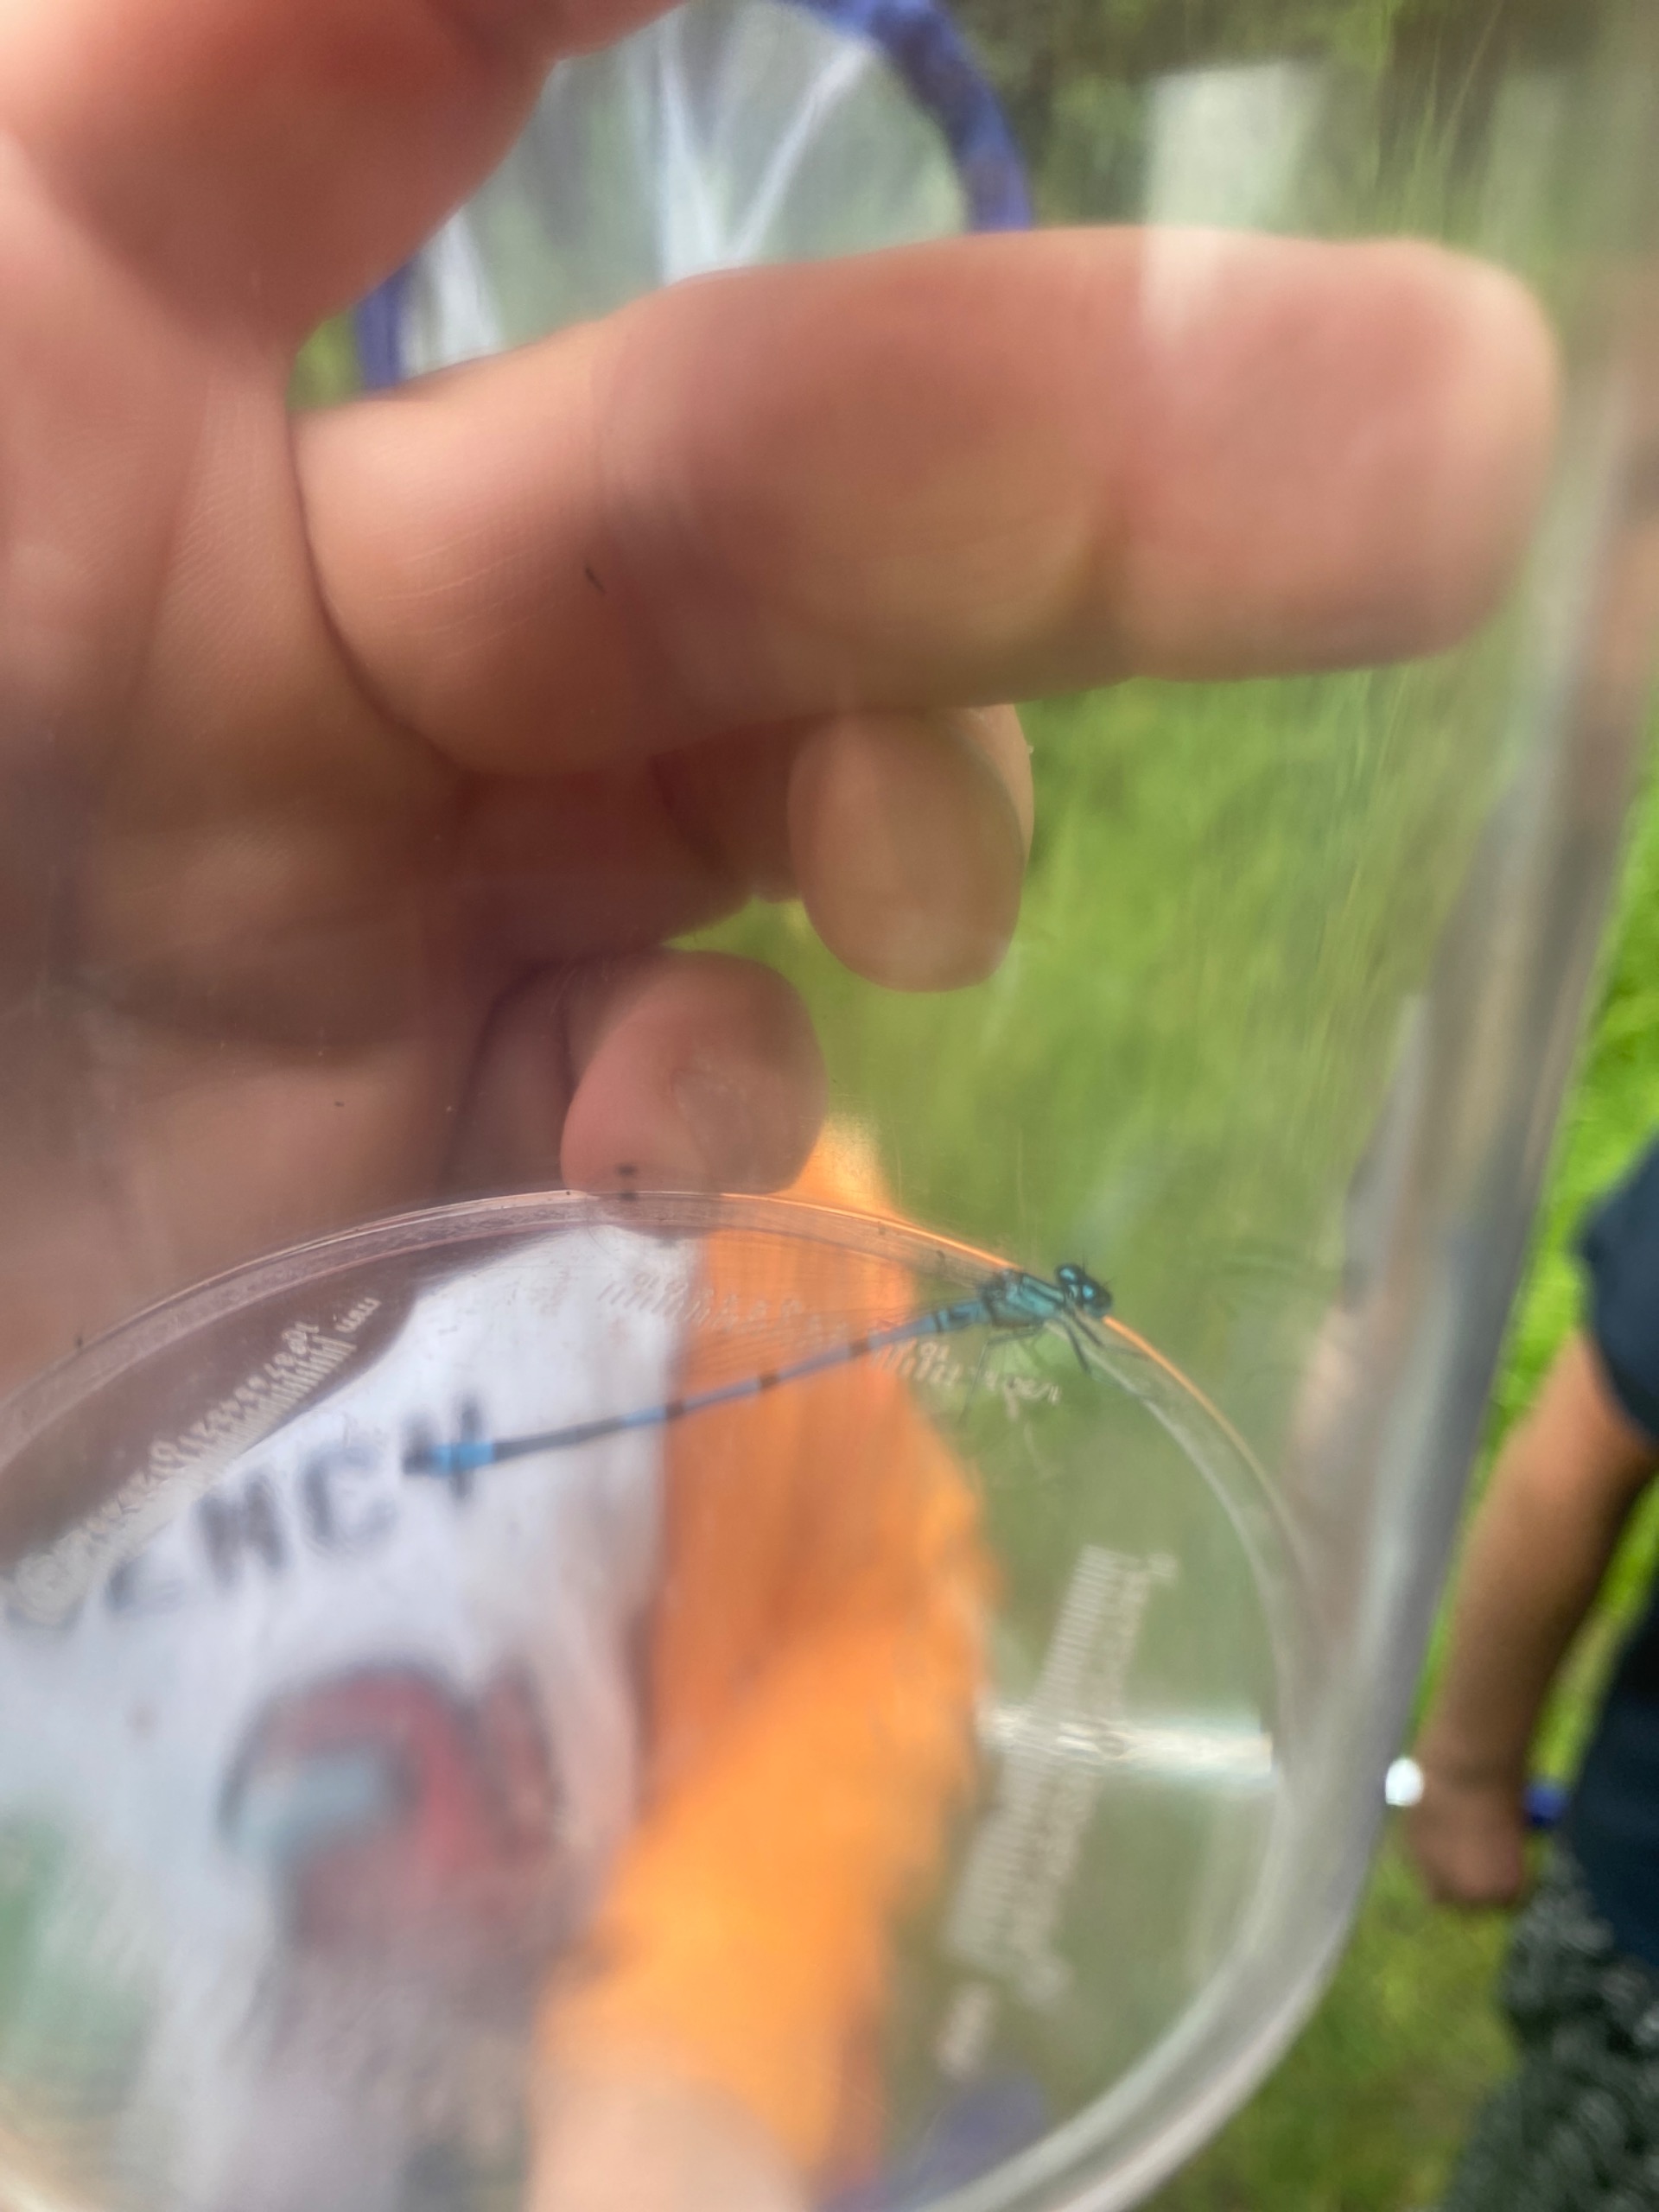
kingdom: Animalia
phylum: Arthropoda
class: Insecta
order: Odonata
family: Coenagrionidae
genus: Coenagrion
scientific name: Coenagrion puella
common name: Hestesko-vandnymfe
